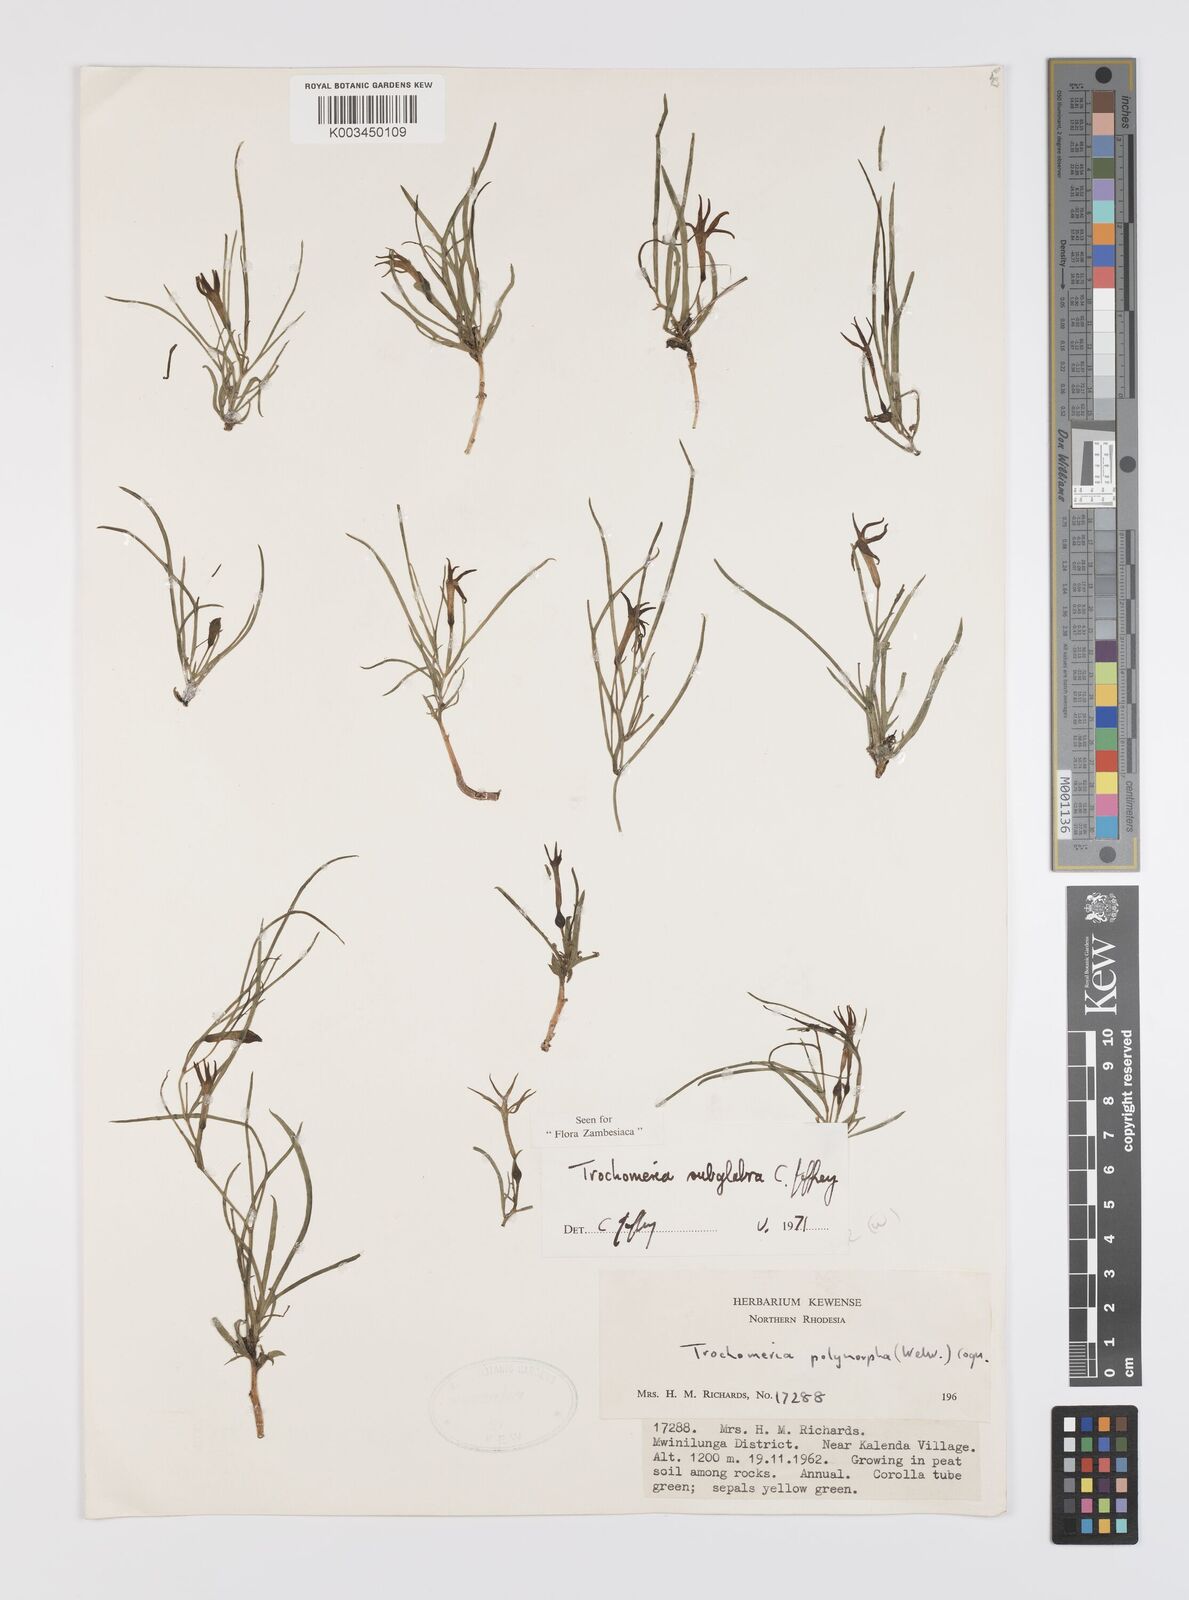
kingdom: Plantae
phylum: Tracheophyta
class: Magnoliopsida
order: Cucurbitales
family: Cucurbitaceae
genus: Trochomeria
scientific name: Trochomeria subglabra
